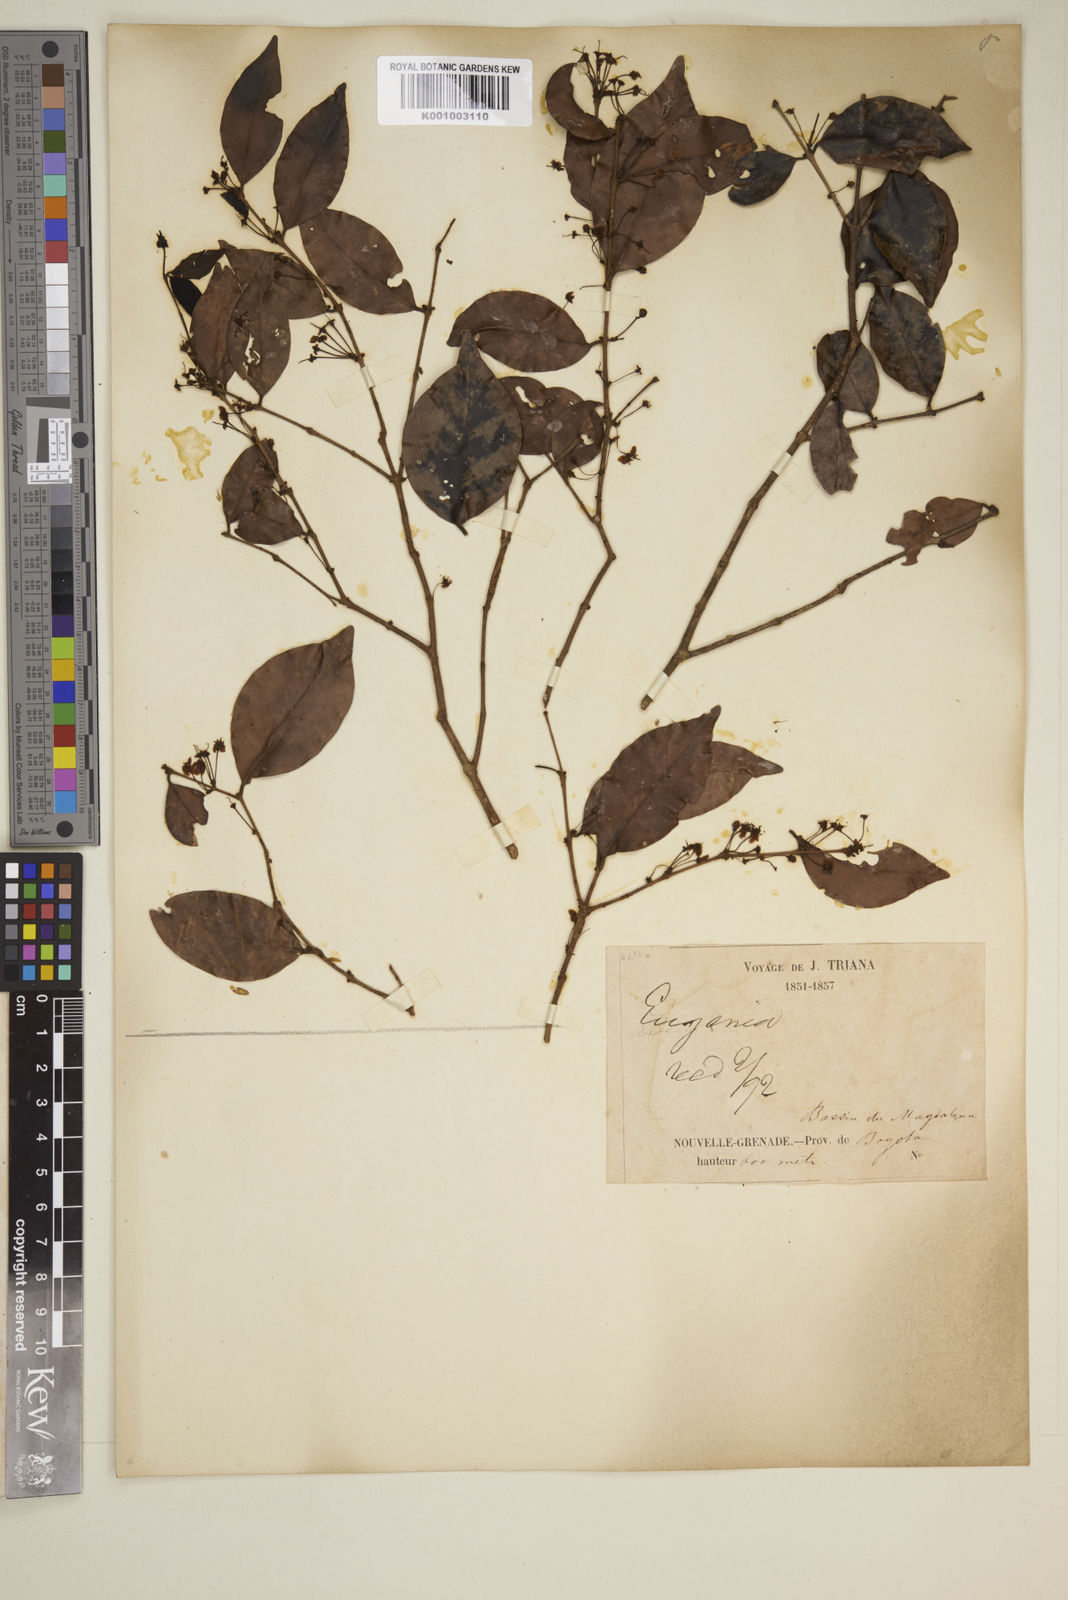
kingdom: Plantae
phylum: Tracheophyta
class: Magnoliopsida
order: Myrtales
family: Myrtaceae
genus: Eugenia
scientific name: Eugenia
